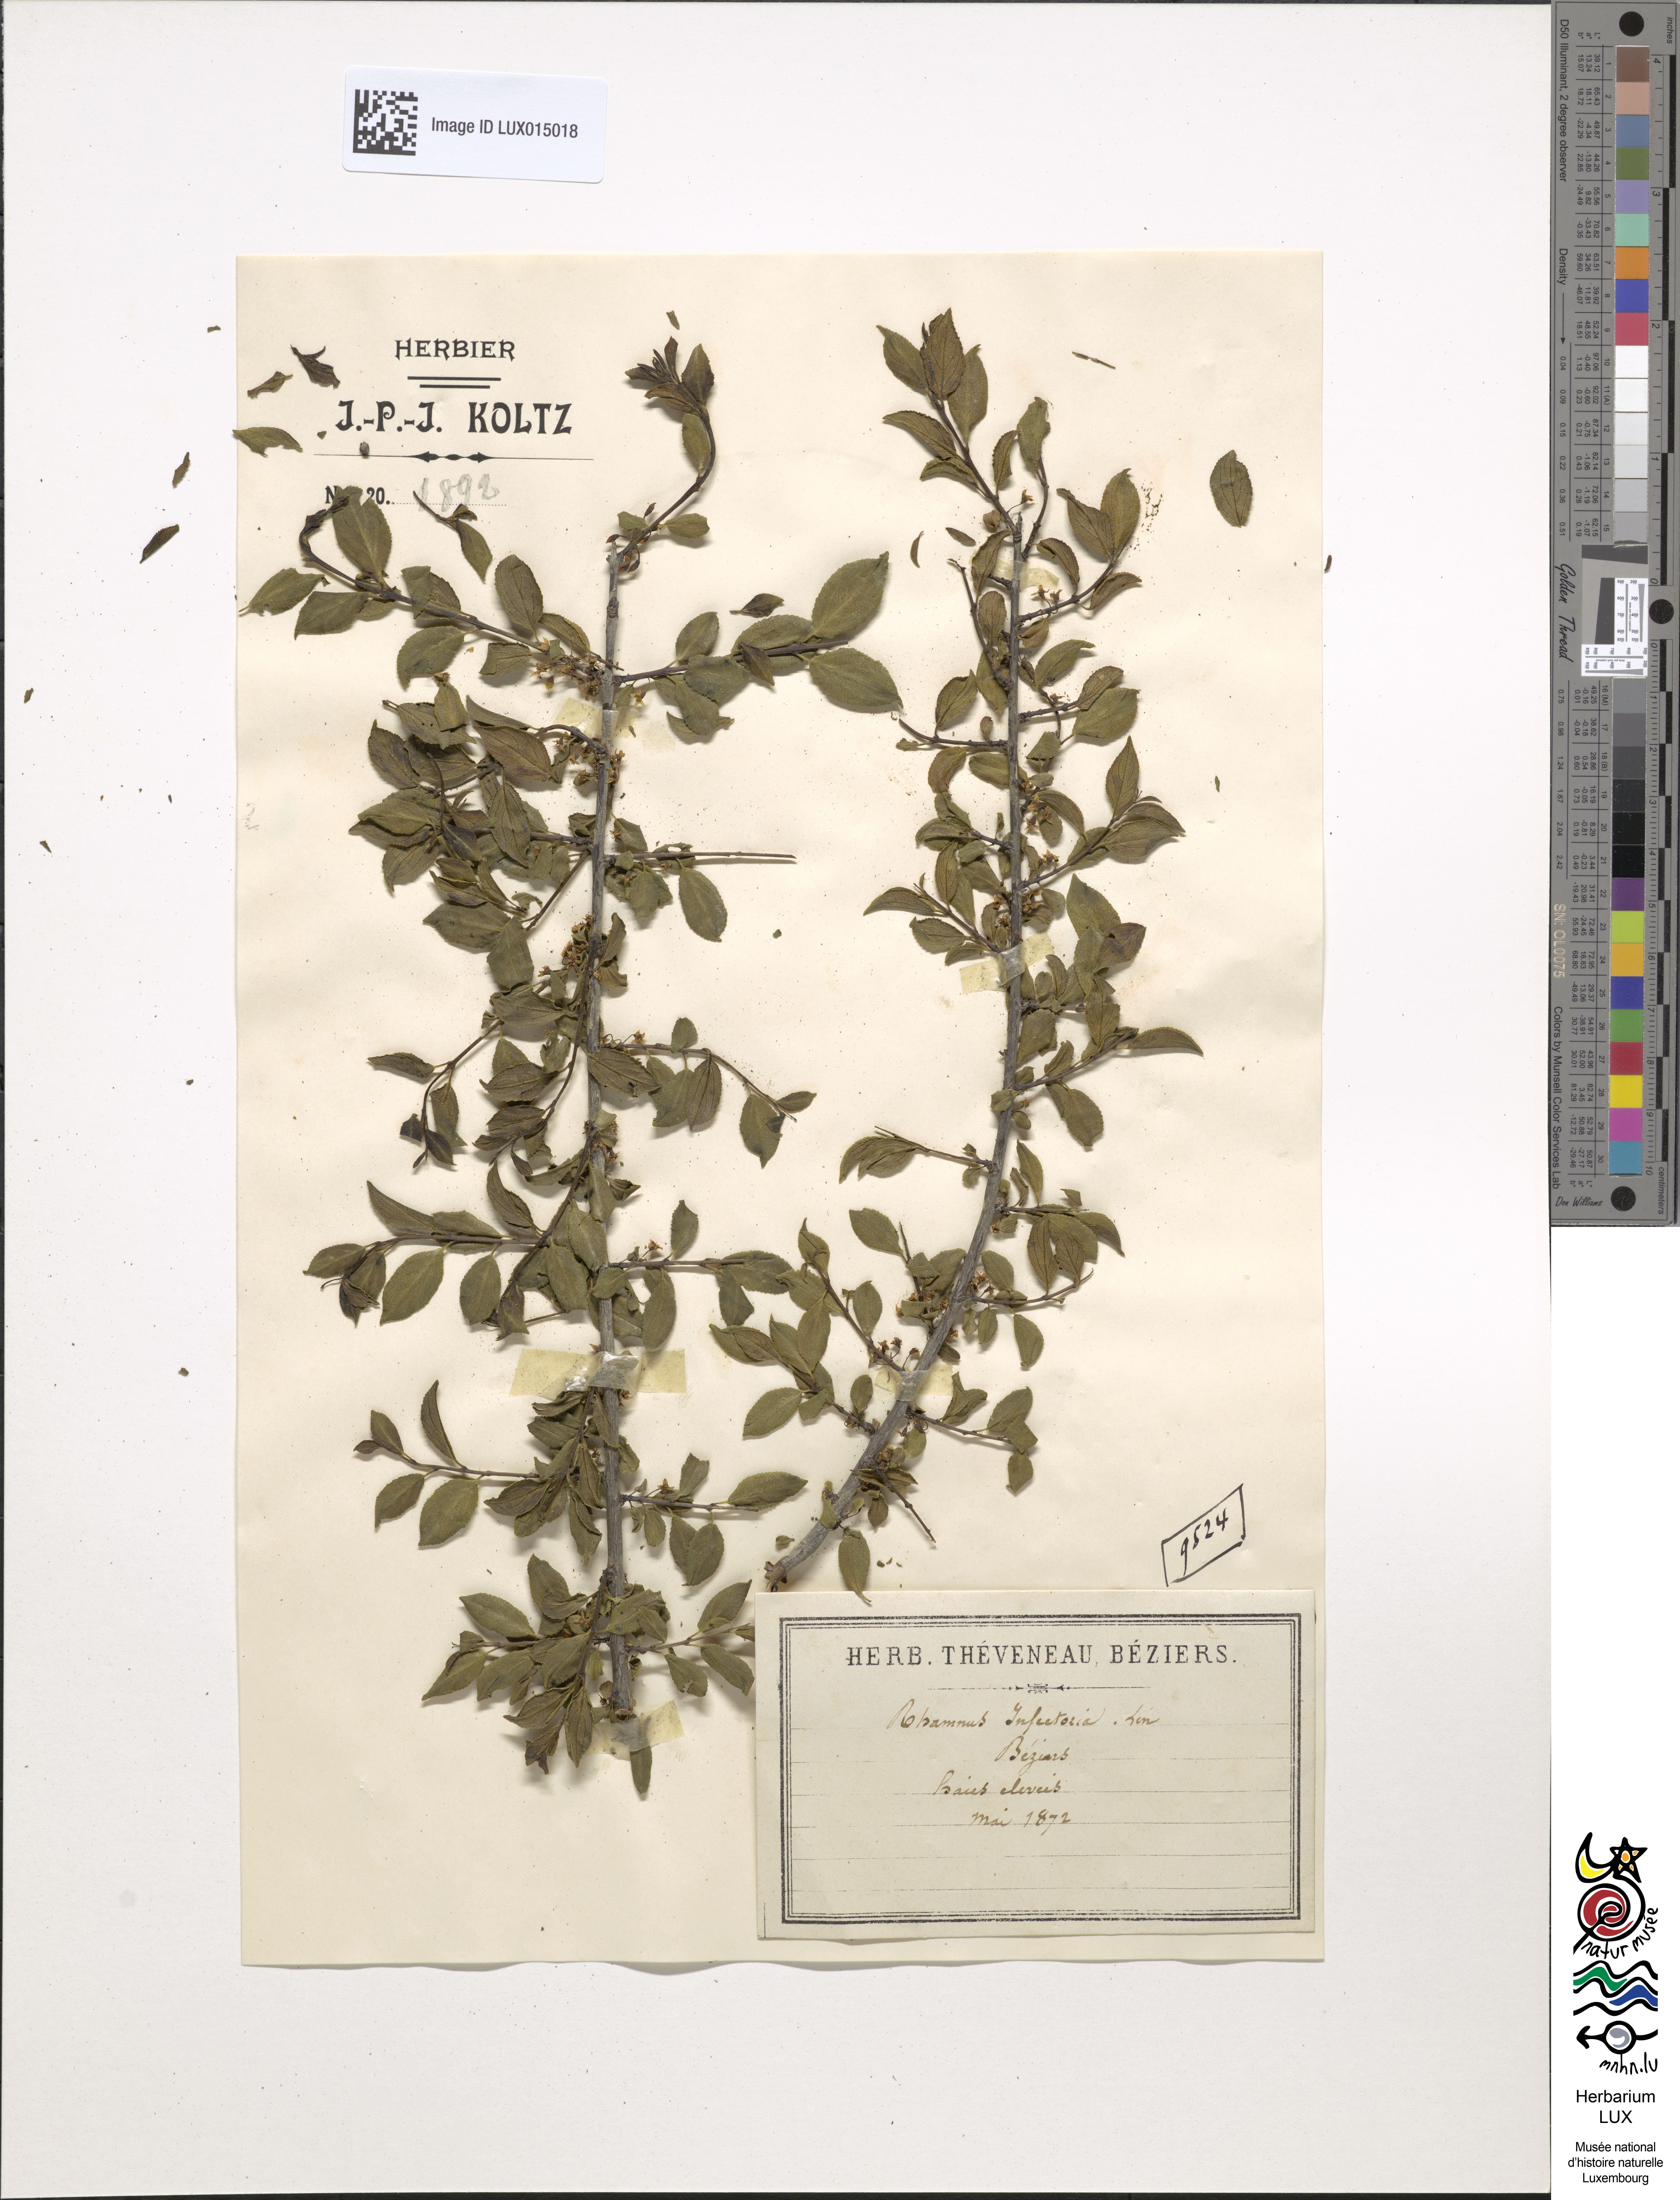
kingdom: Plantae
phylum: Tracheophyta
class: Magnoliopsida
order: Rosales
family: Rhamnaceae
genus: Rhamnus
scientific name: Rhamnus saxatilis
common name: Rock buckthorn
